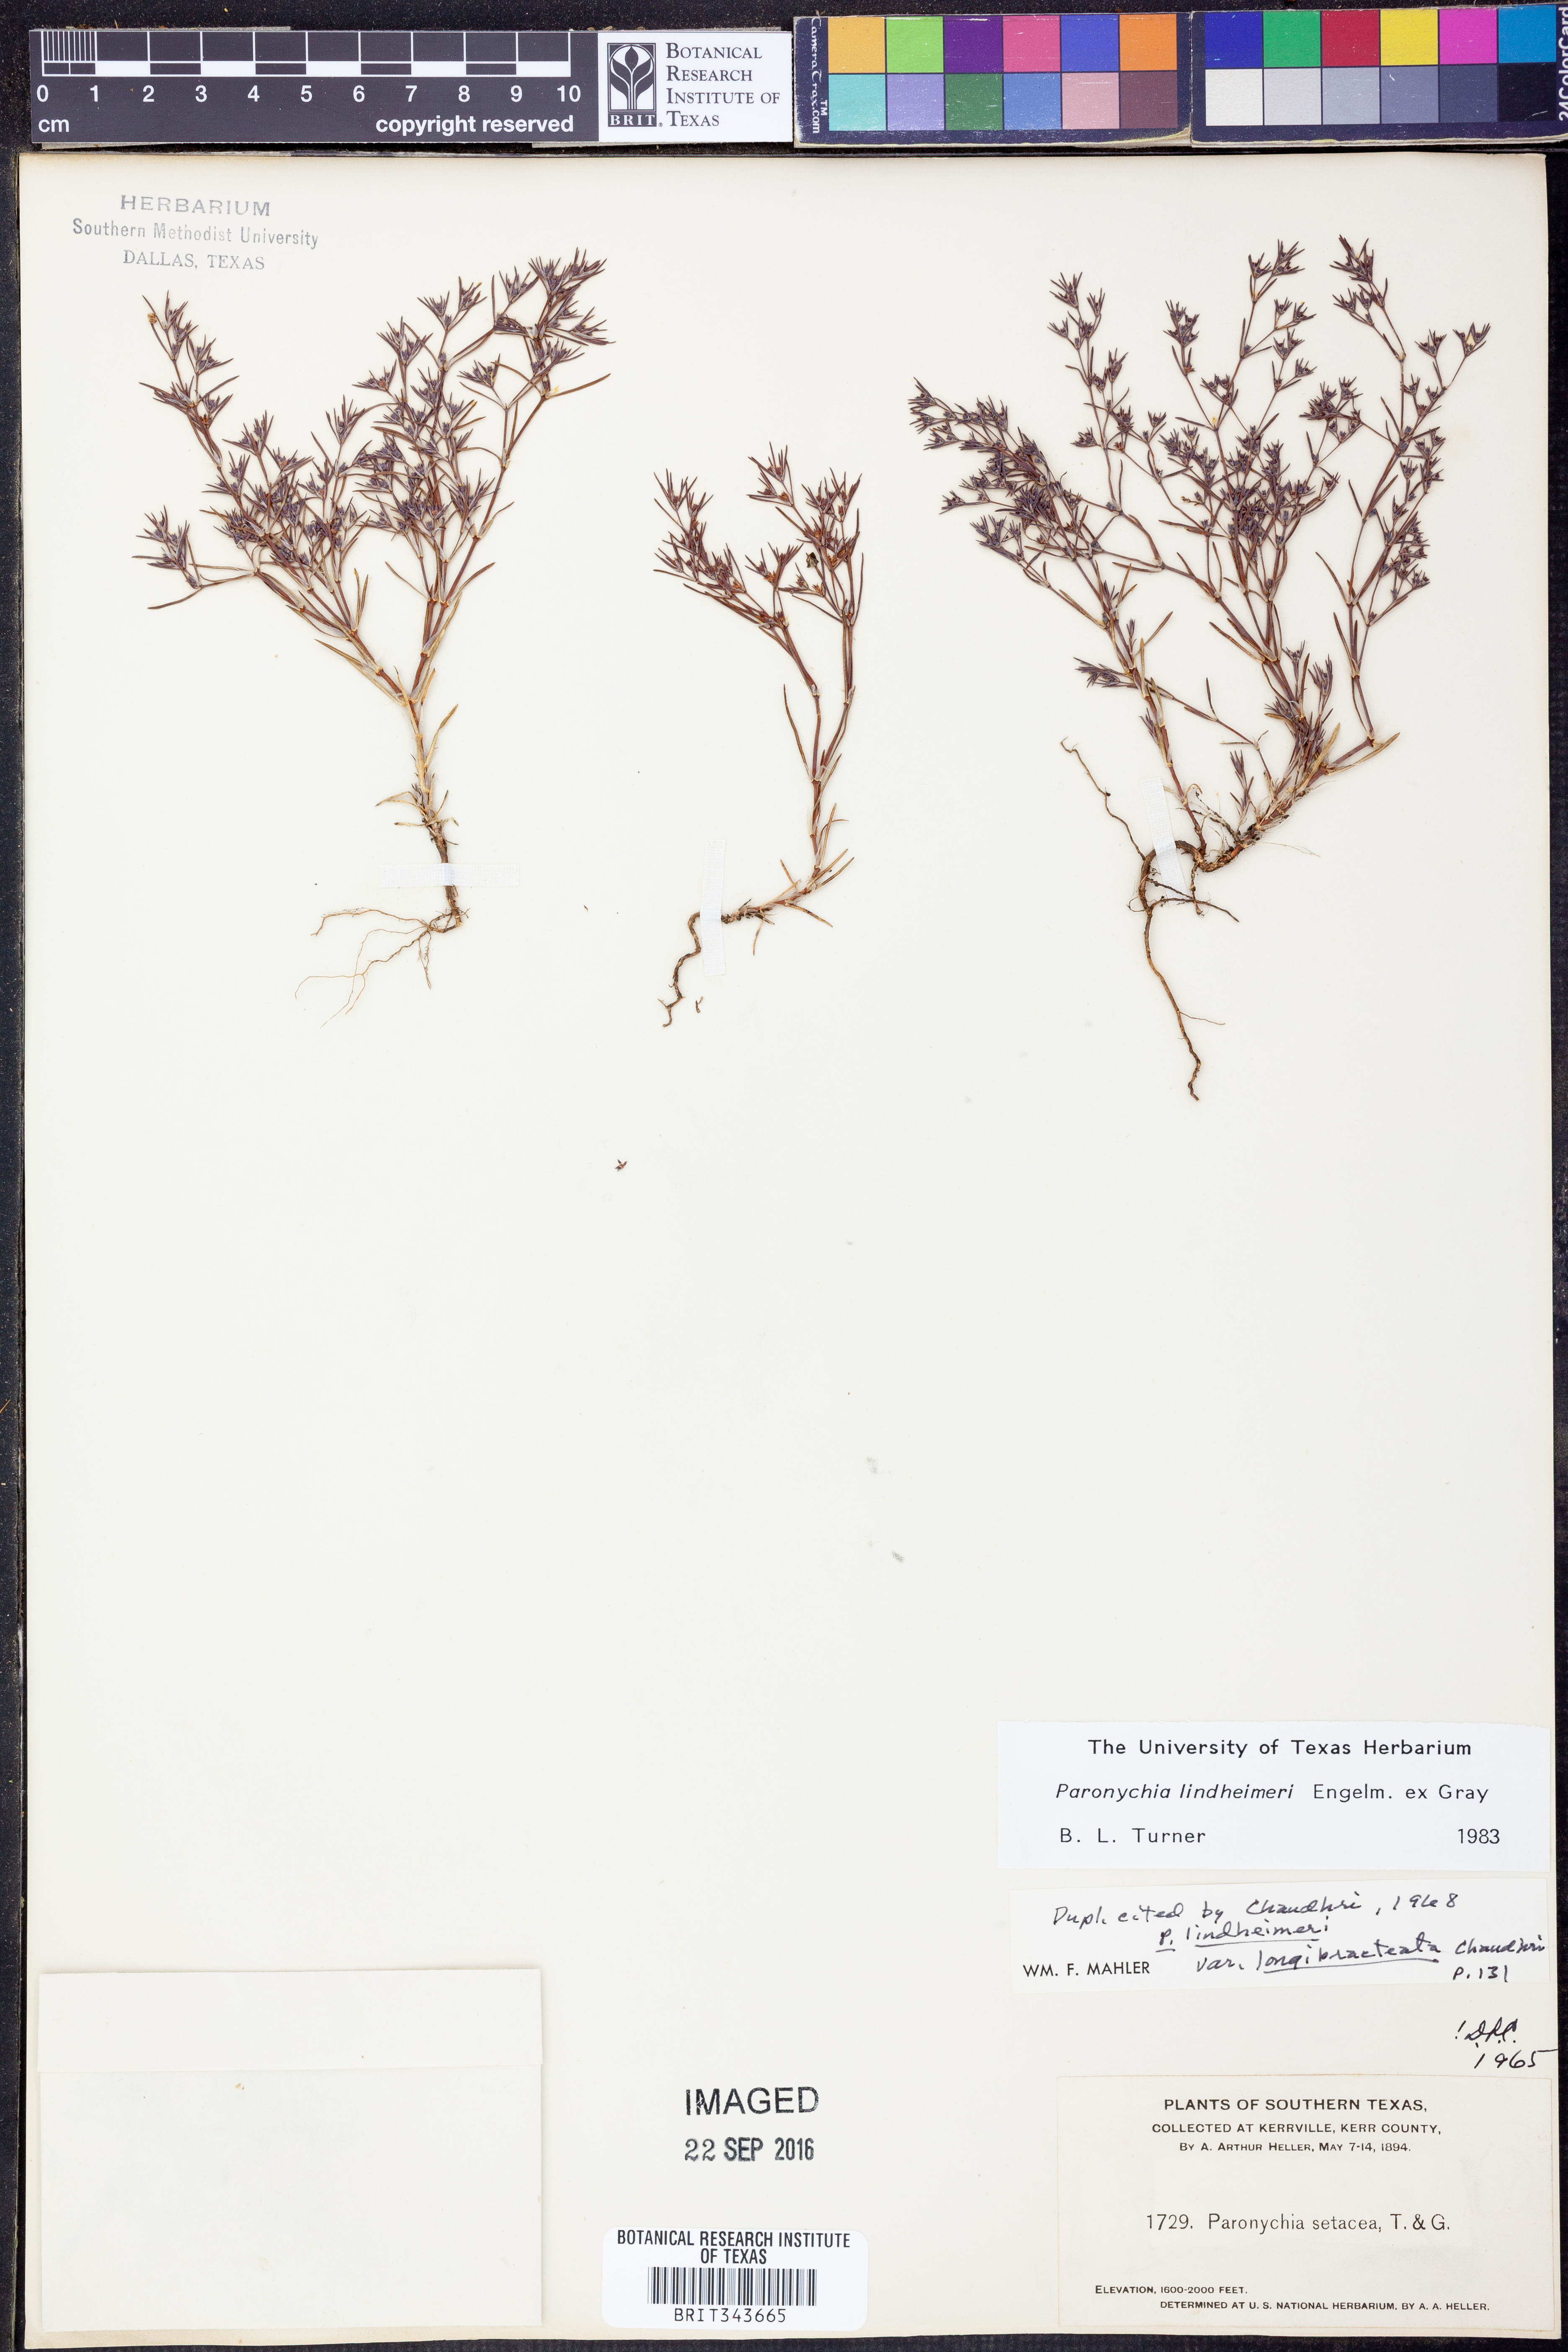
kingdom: Plantae
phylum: Tracheophyta
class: Magnoliopsida
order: Caryophyllales
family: Caryophyllaceae
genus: Paronychia
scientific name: Paronychia lindheimeri
